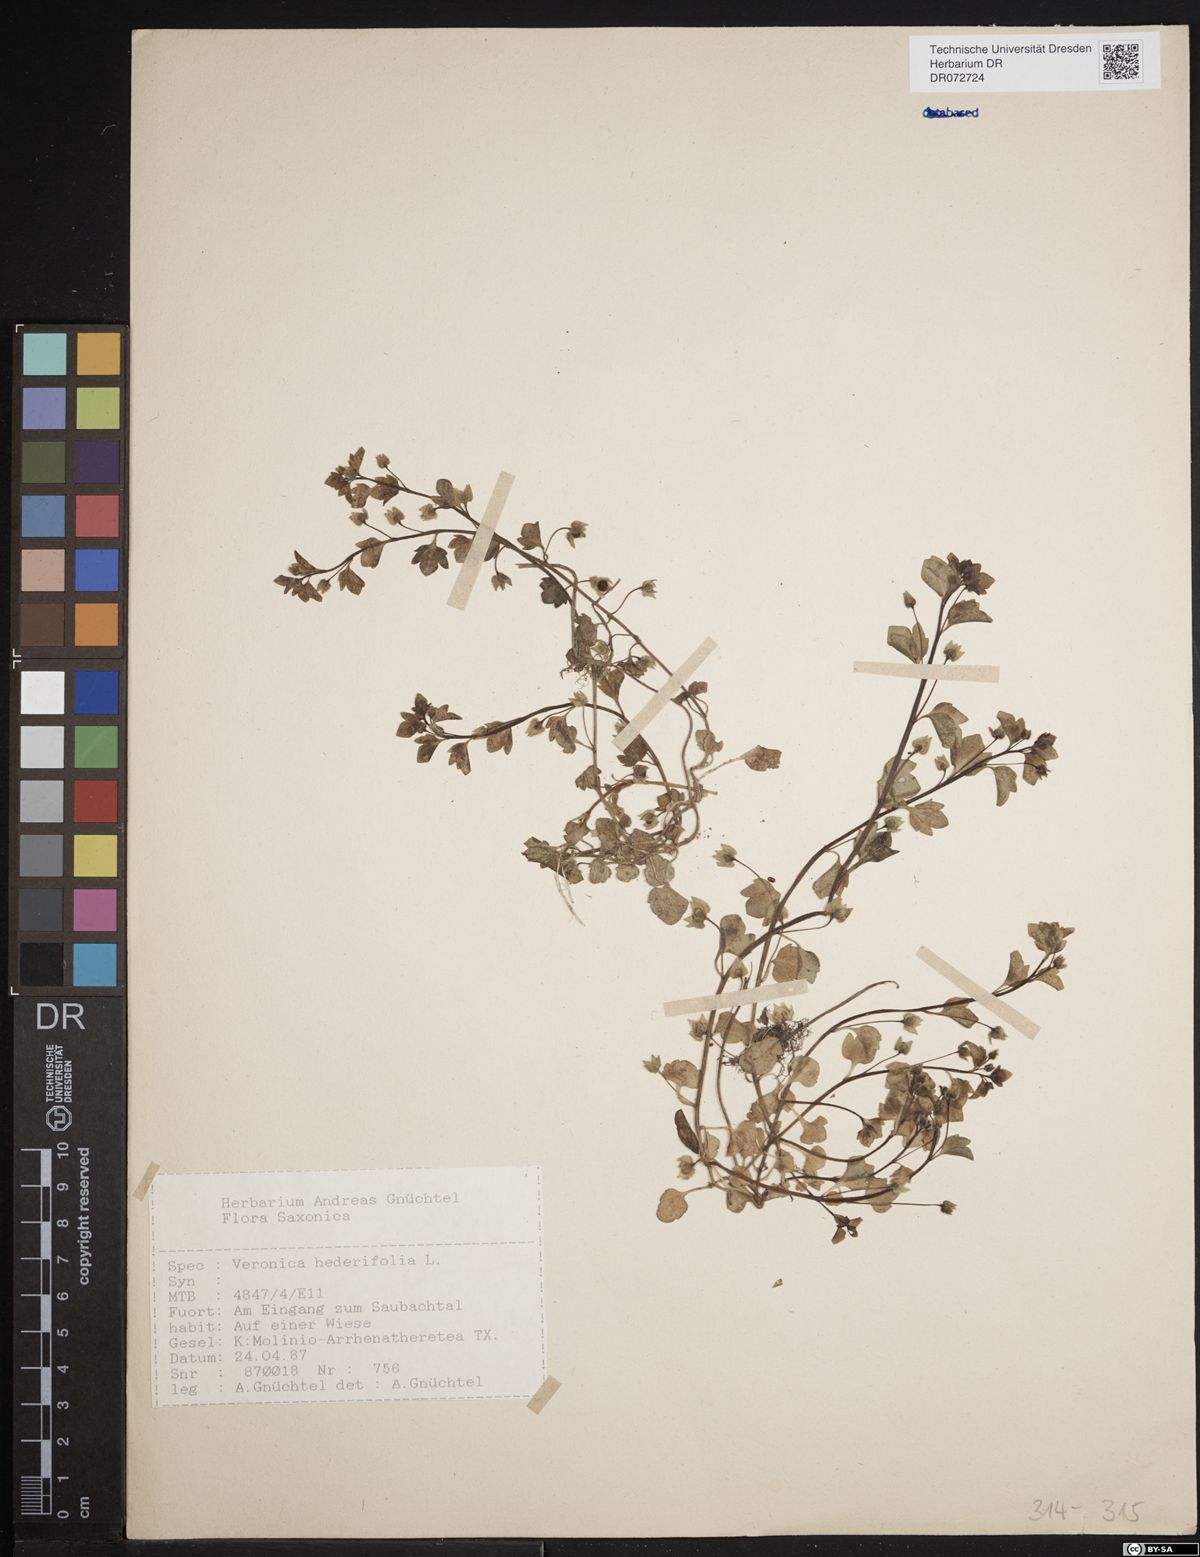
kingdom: Plantae
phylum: Tracheophyta
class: Magnoliopsida
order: Lamiales
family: Plantaginaceae
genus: Veronica
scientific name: Veronica hederifolia
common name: Ivy-leaved speedwell
